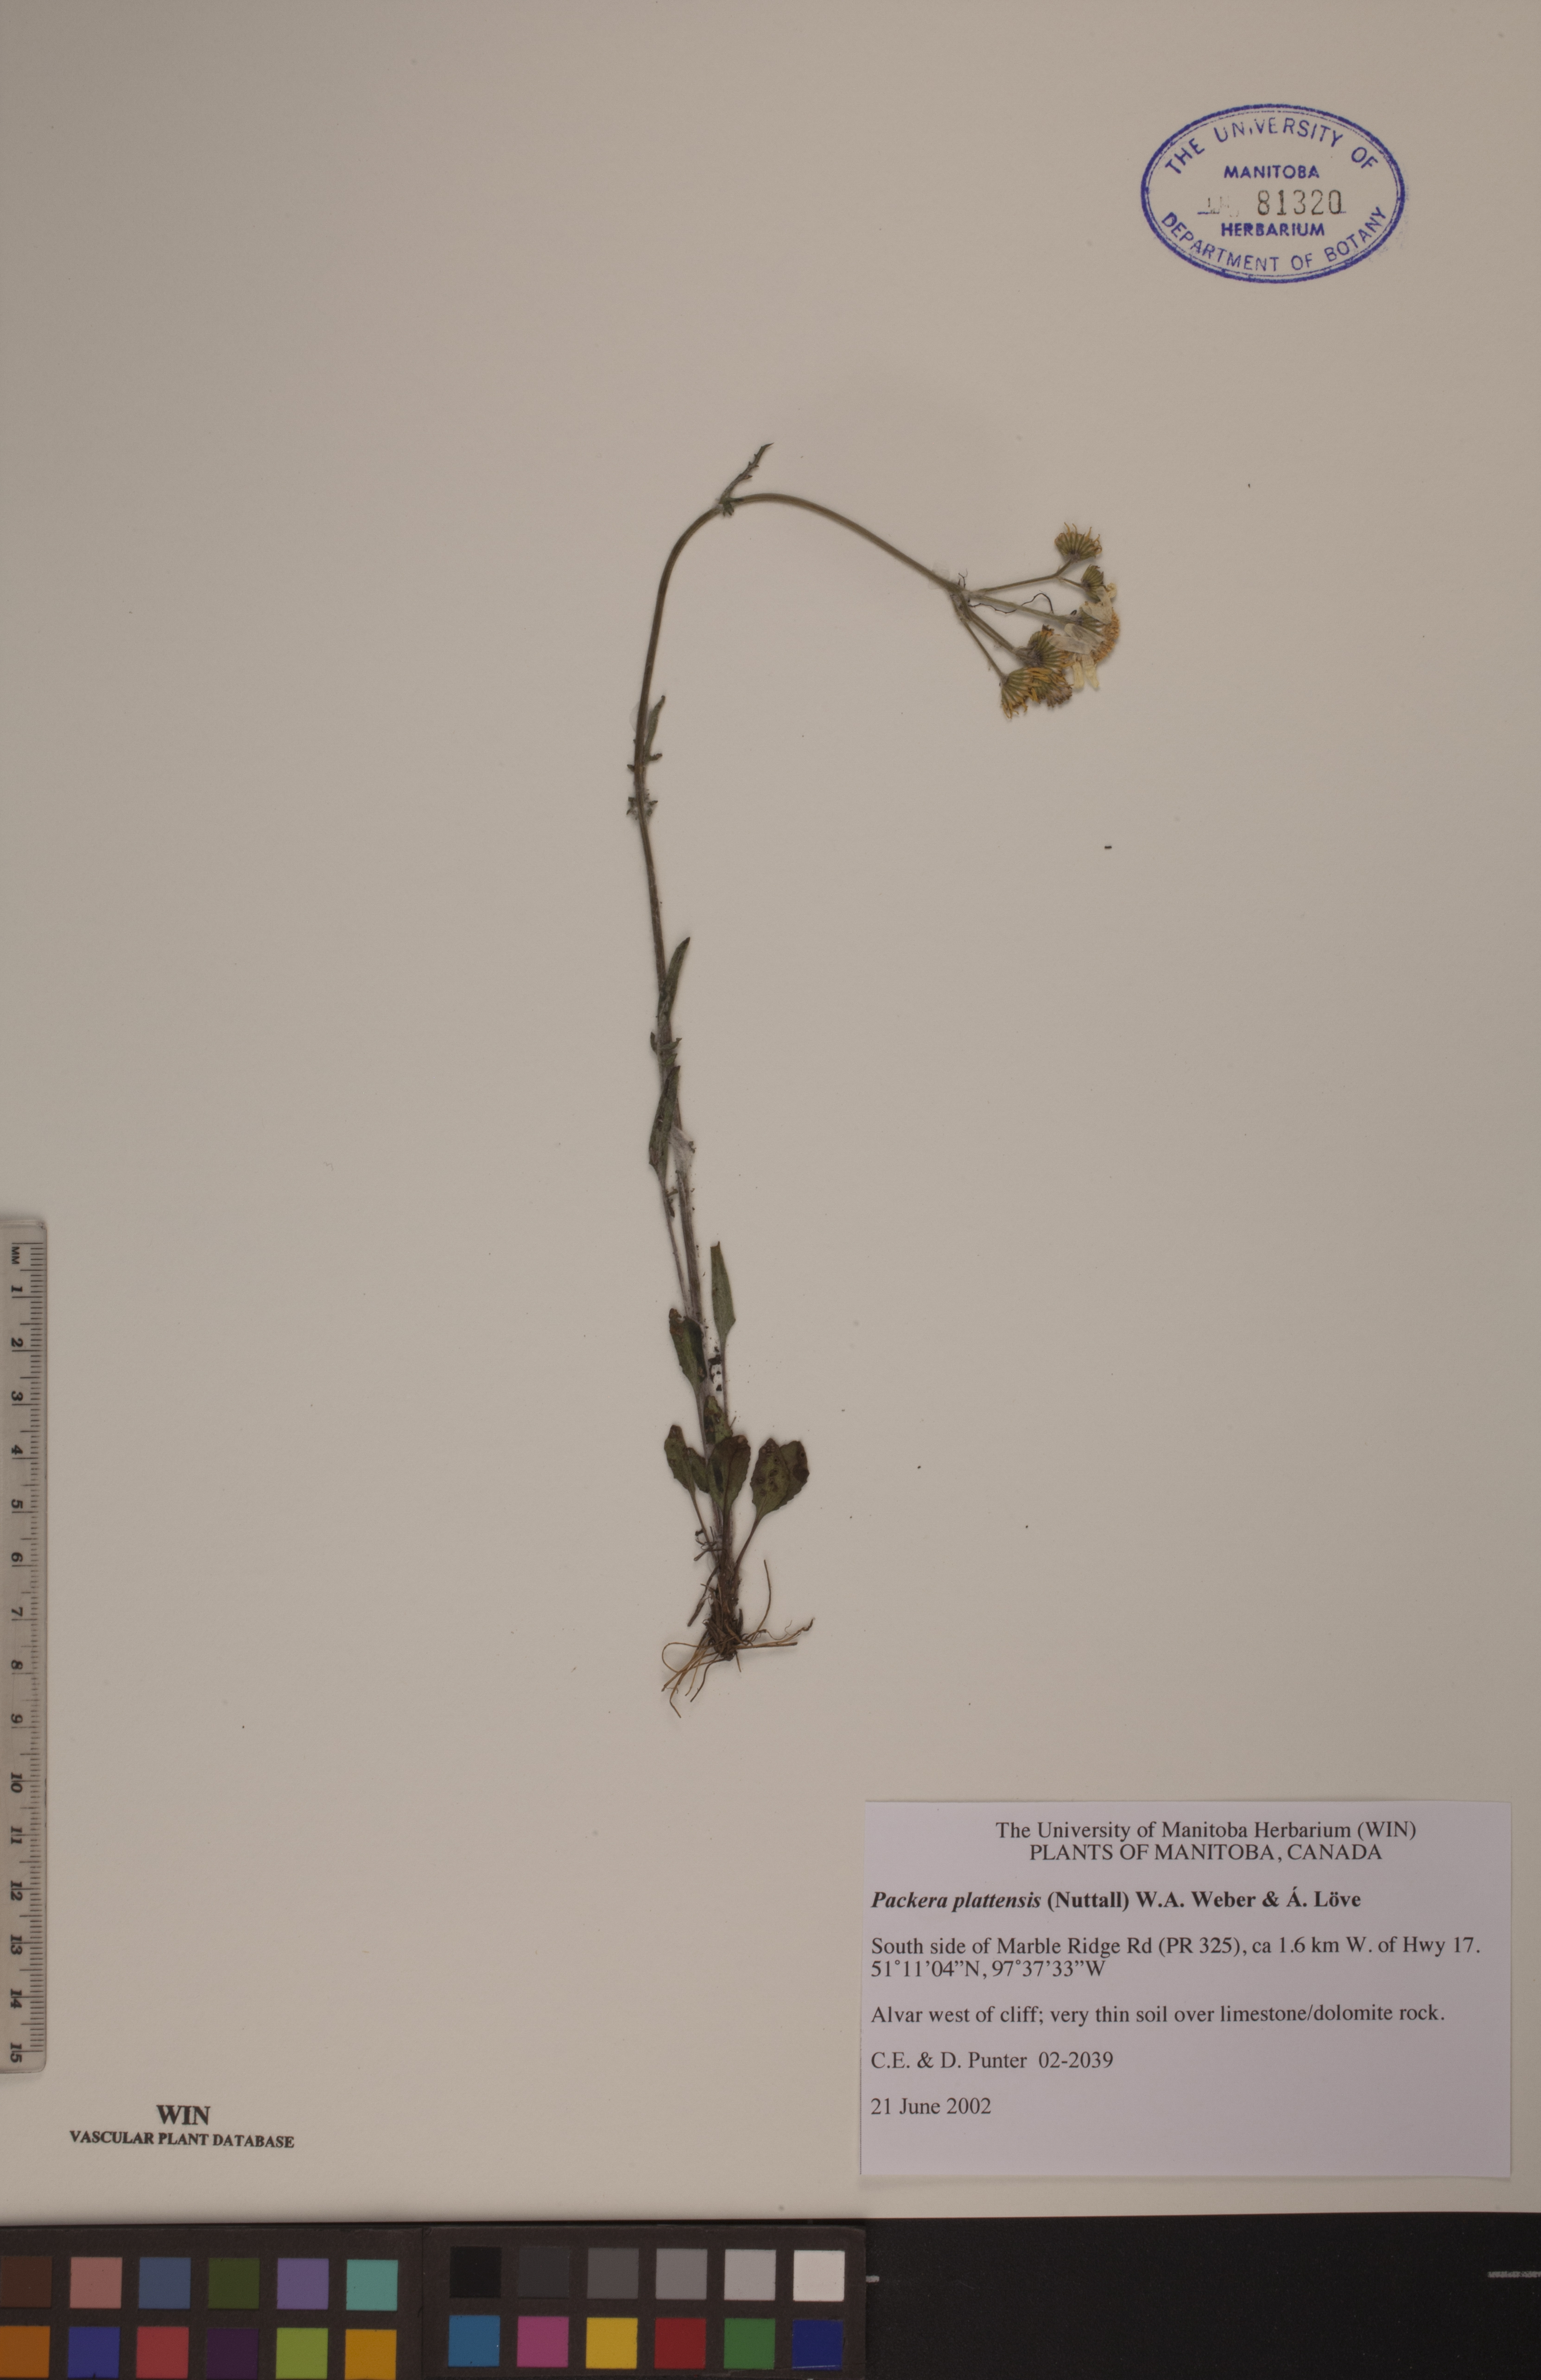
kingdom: Plantae
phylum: Tracheophyta
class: Magnoliopsida
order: Asterales
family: Asteraceae
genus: Packera
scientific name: Packera plattensis
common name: Prairie groundsel
